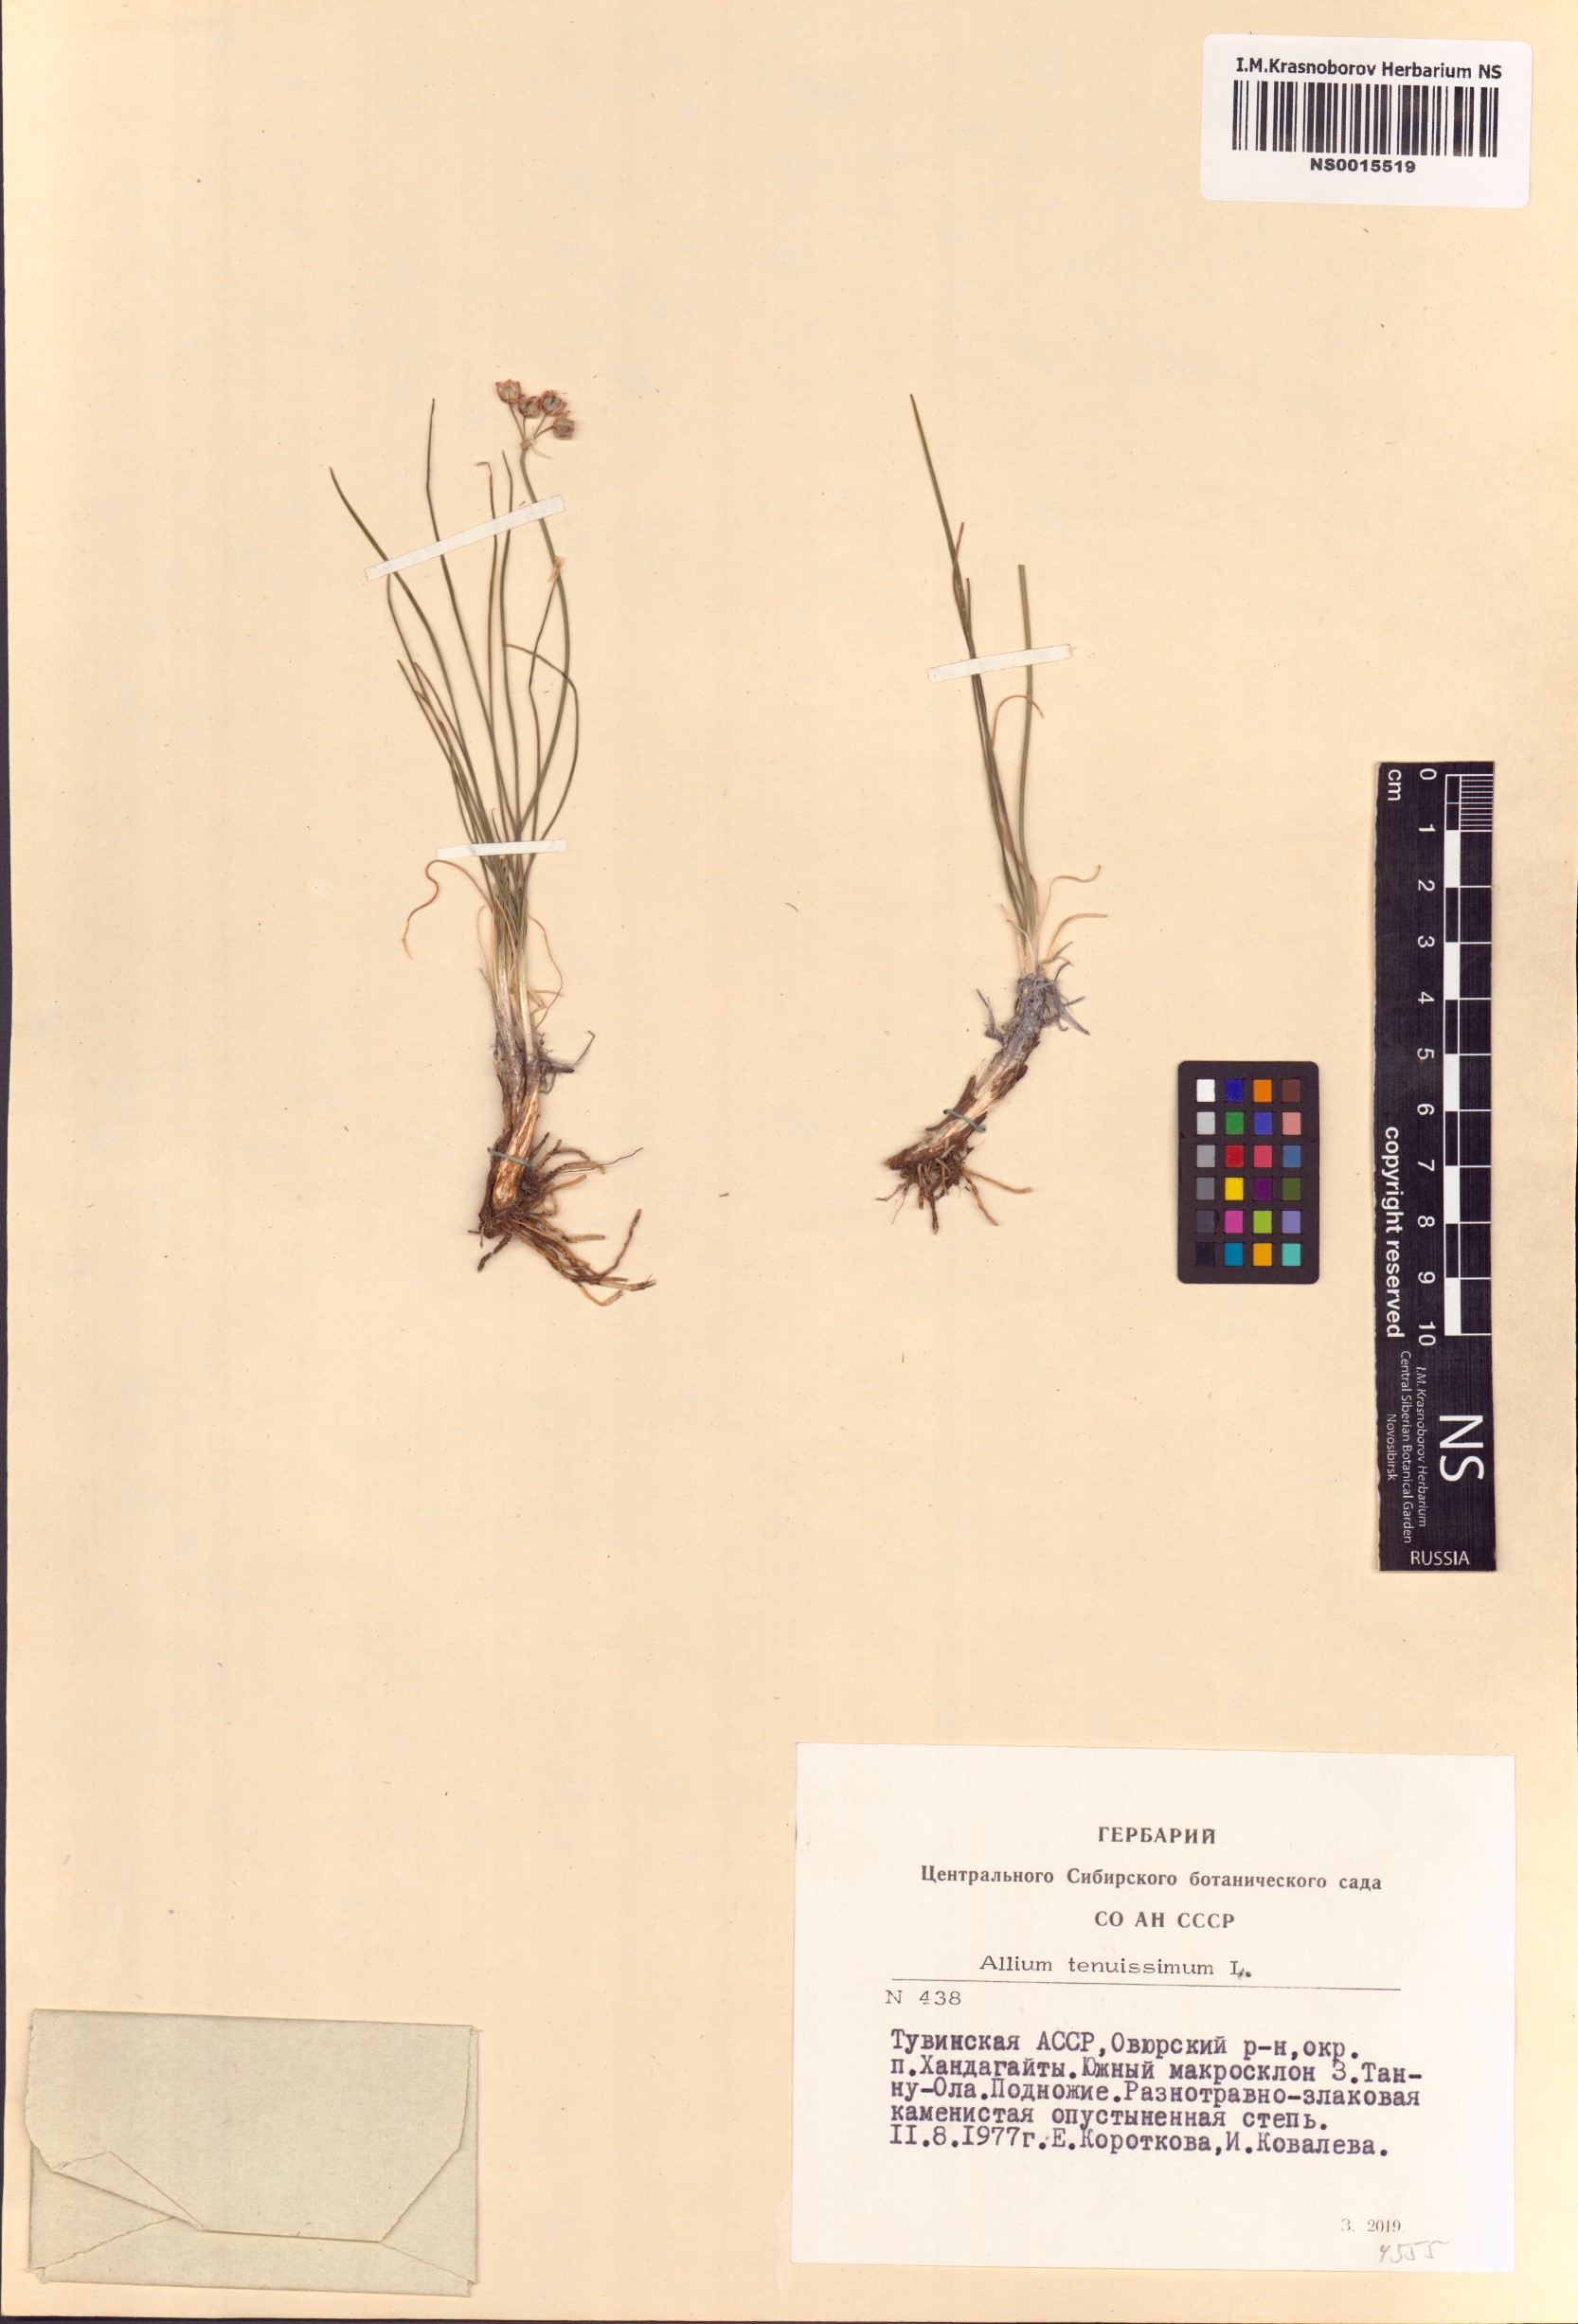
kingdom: Plantae
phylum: Tracheophyta
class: Liliopsida
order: Asparagales
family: Amaryllidaceae
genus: Allium
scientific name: Allium tenuissimum
